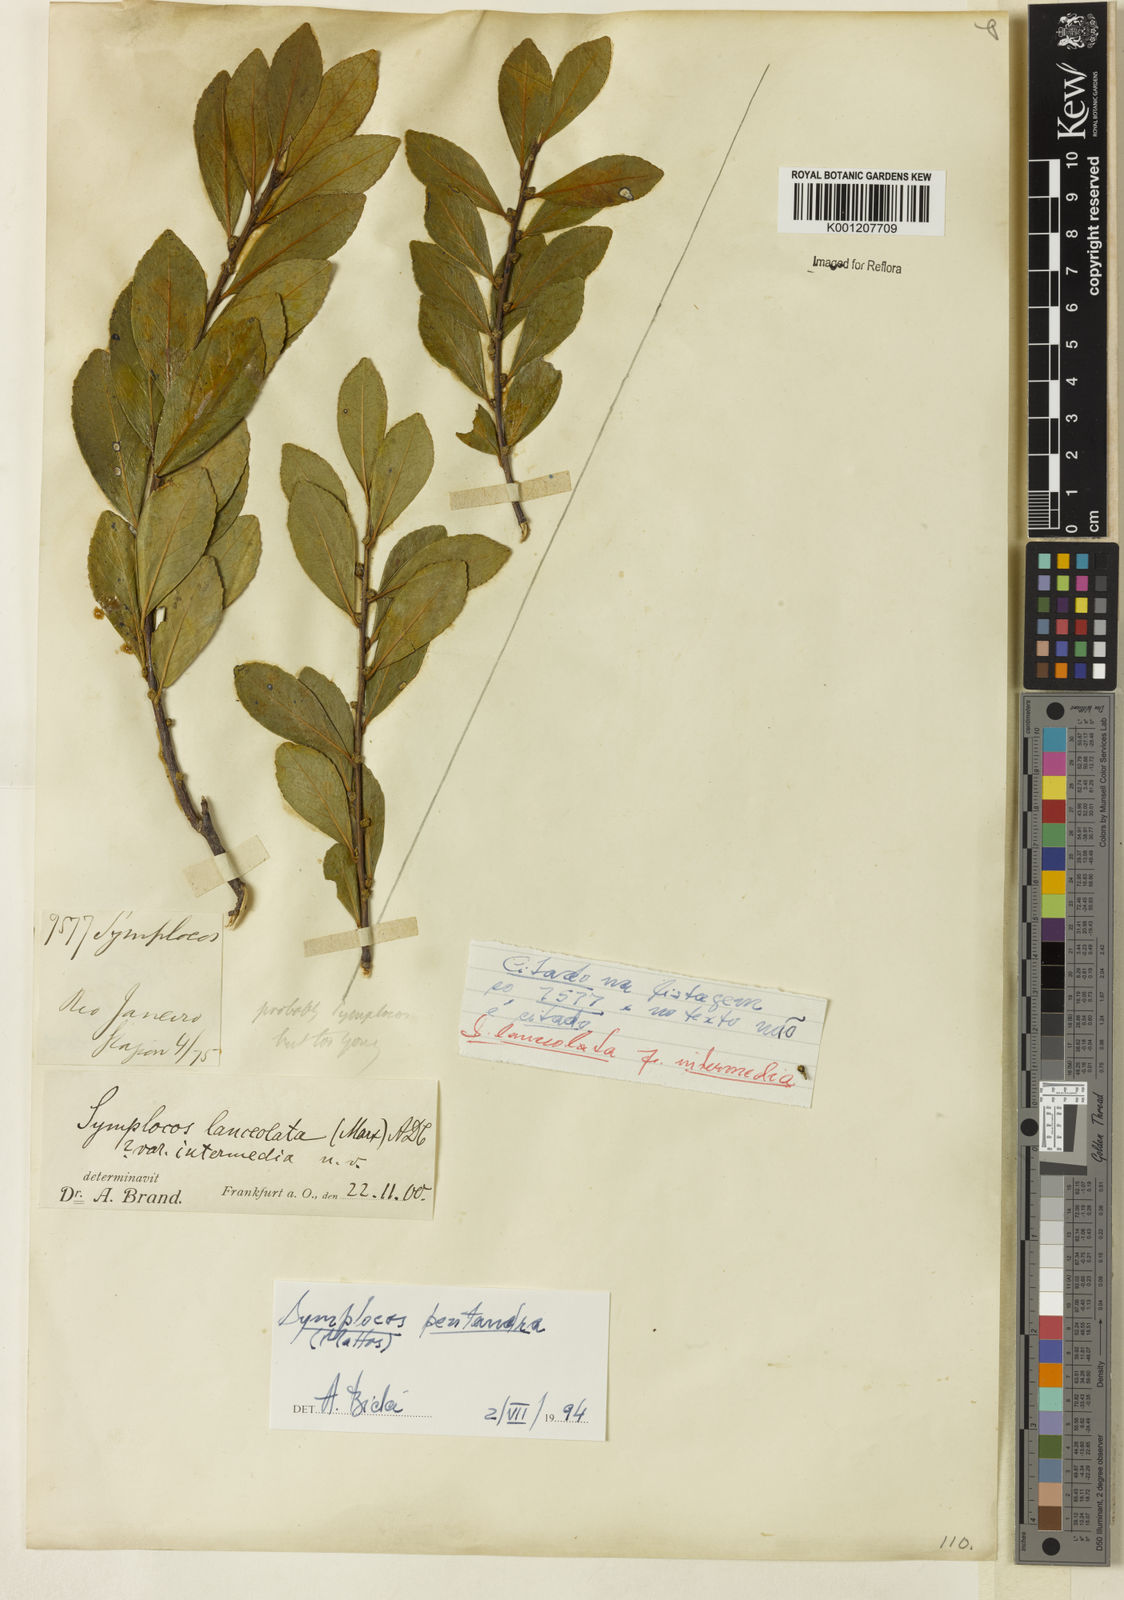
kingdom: Plantae
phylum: Tracheophyta
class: Magnoliopsida
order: Ericales
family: Symplocaceae
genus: Symplocos
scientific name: Symplocos pentandra
